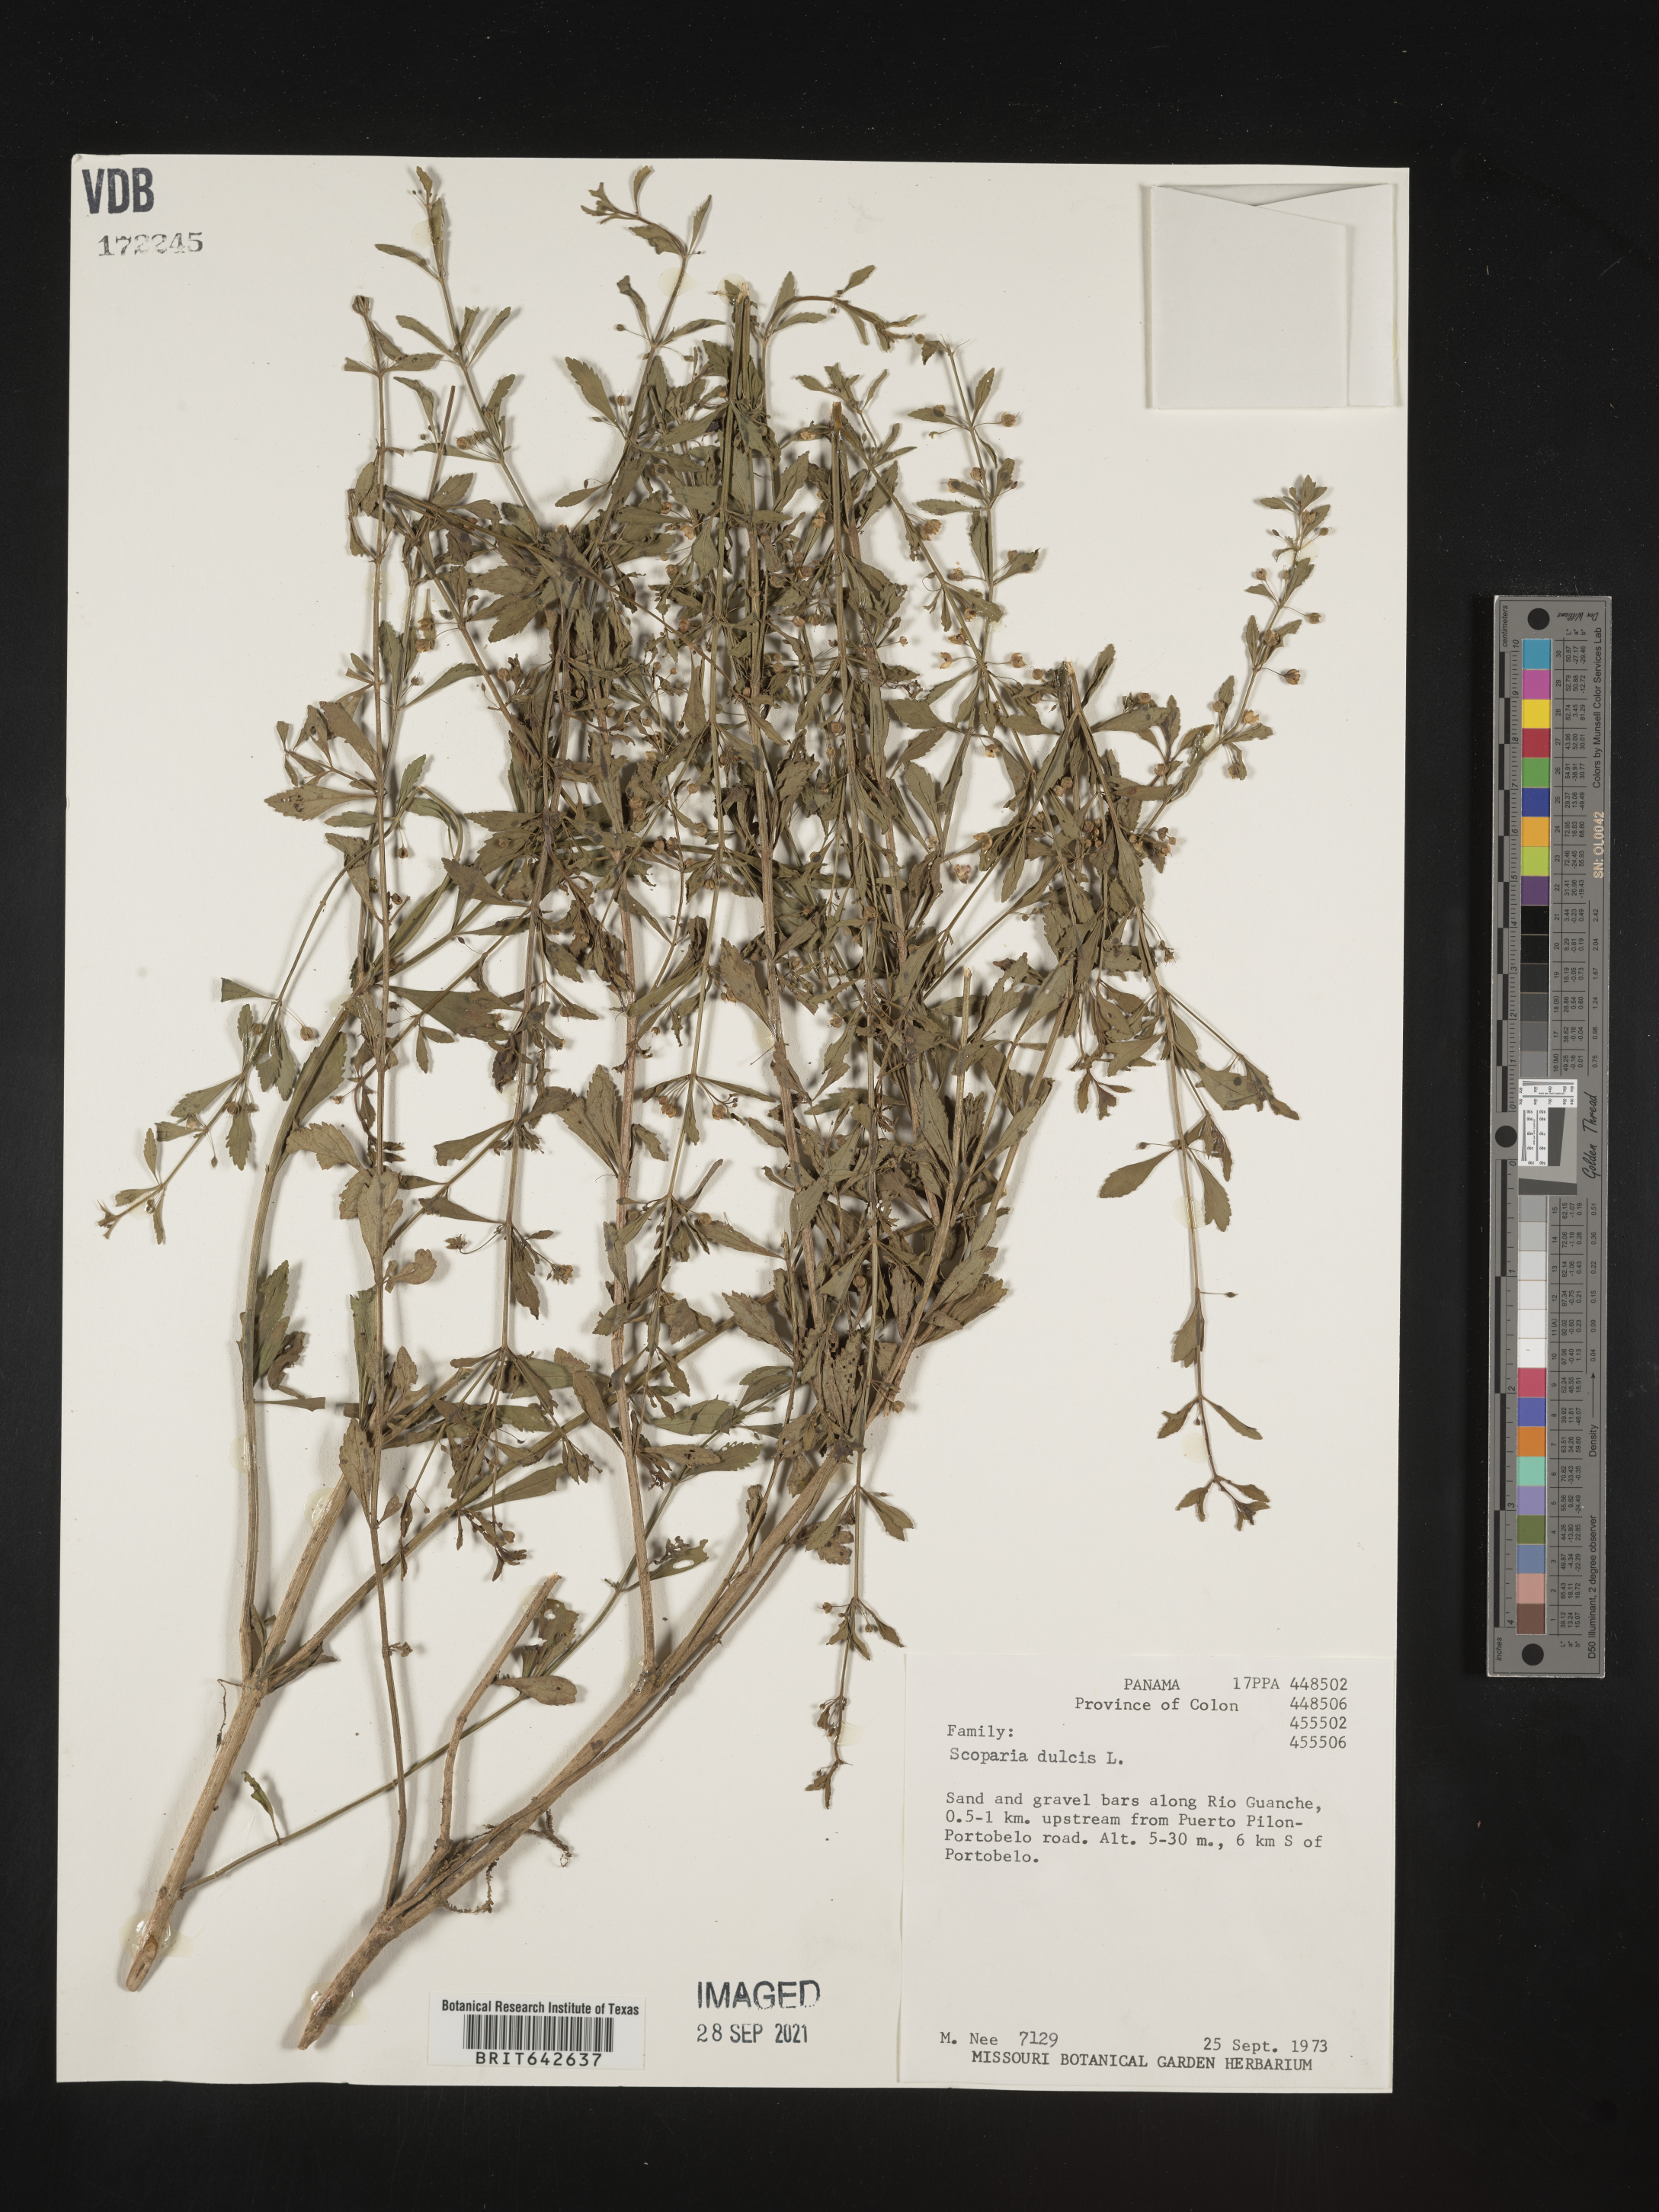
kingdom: Plantae
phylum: Tracheophyta
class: Magnoliopsida
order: Lamiales
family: Plantaginaceae
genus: Scoparia
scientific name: Scoparia
